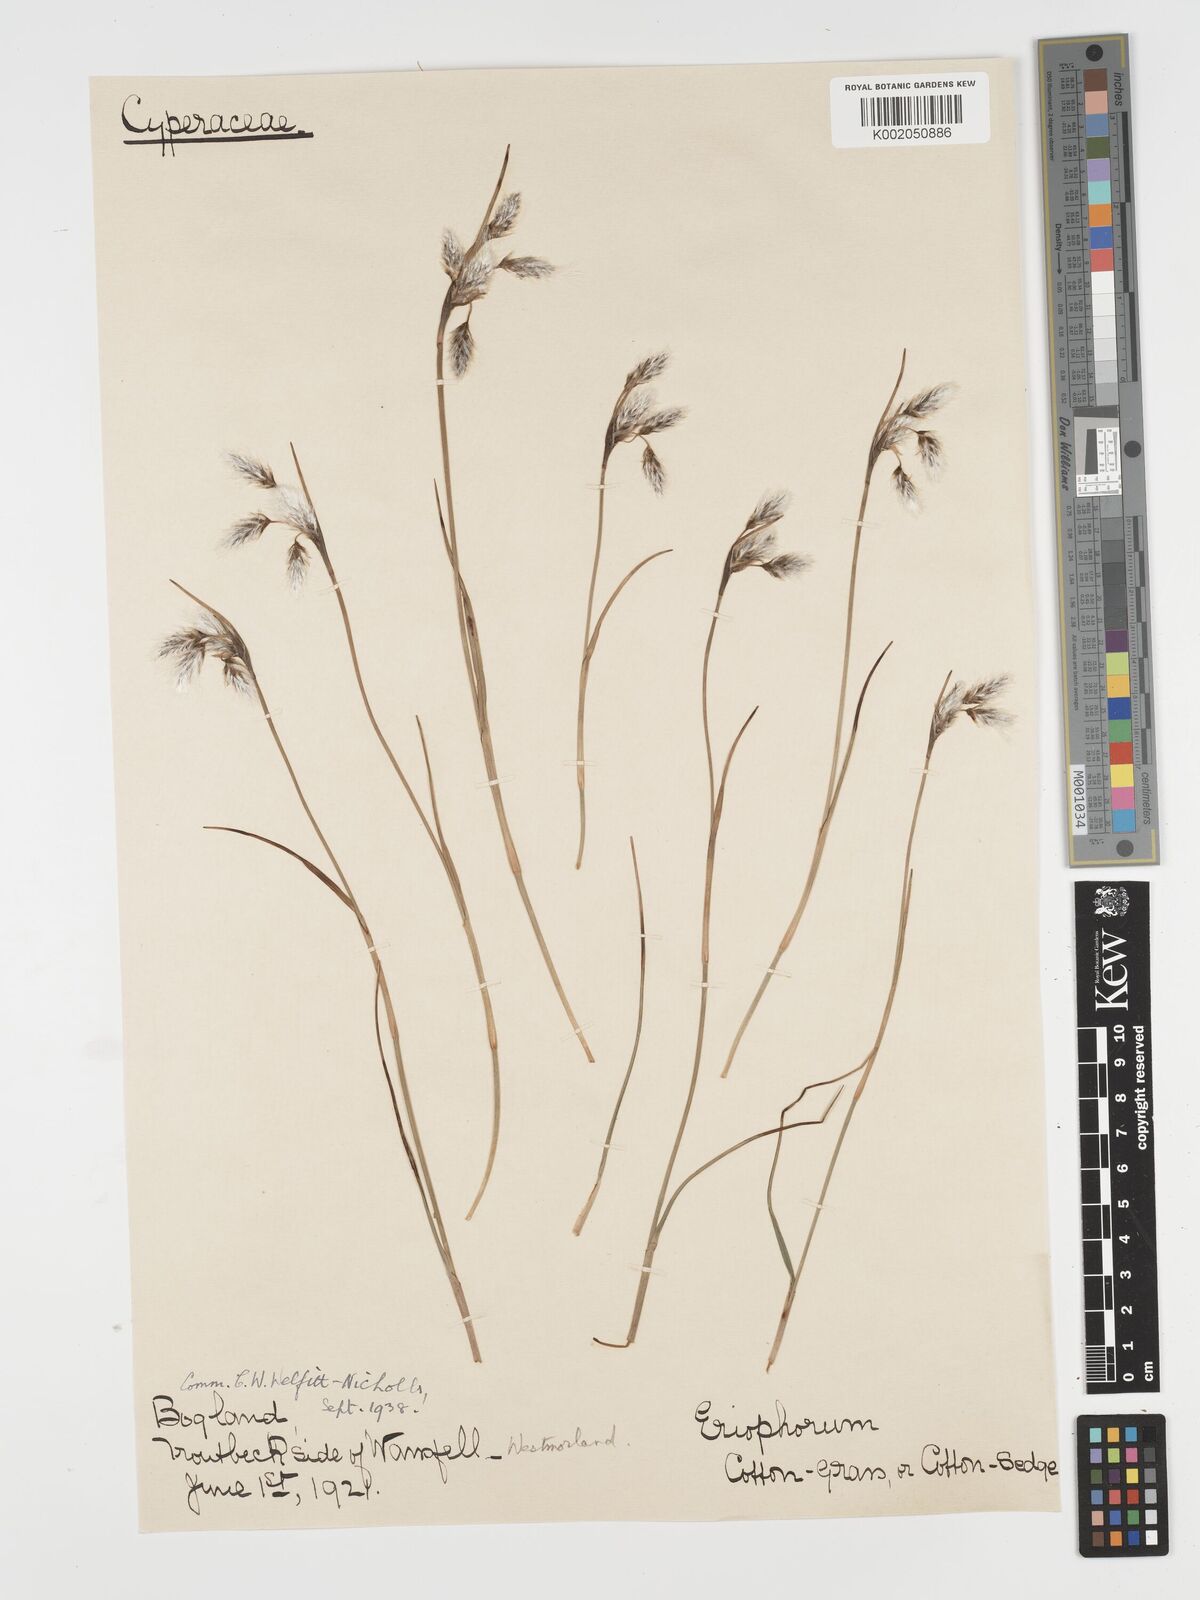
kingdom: Plantae
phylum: Tracheophyta
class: Liliopsida
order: Poales
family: Cyperaceae
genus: Eriophorum
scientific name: Eriophorum angustifolium
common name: Common cottongrass
